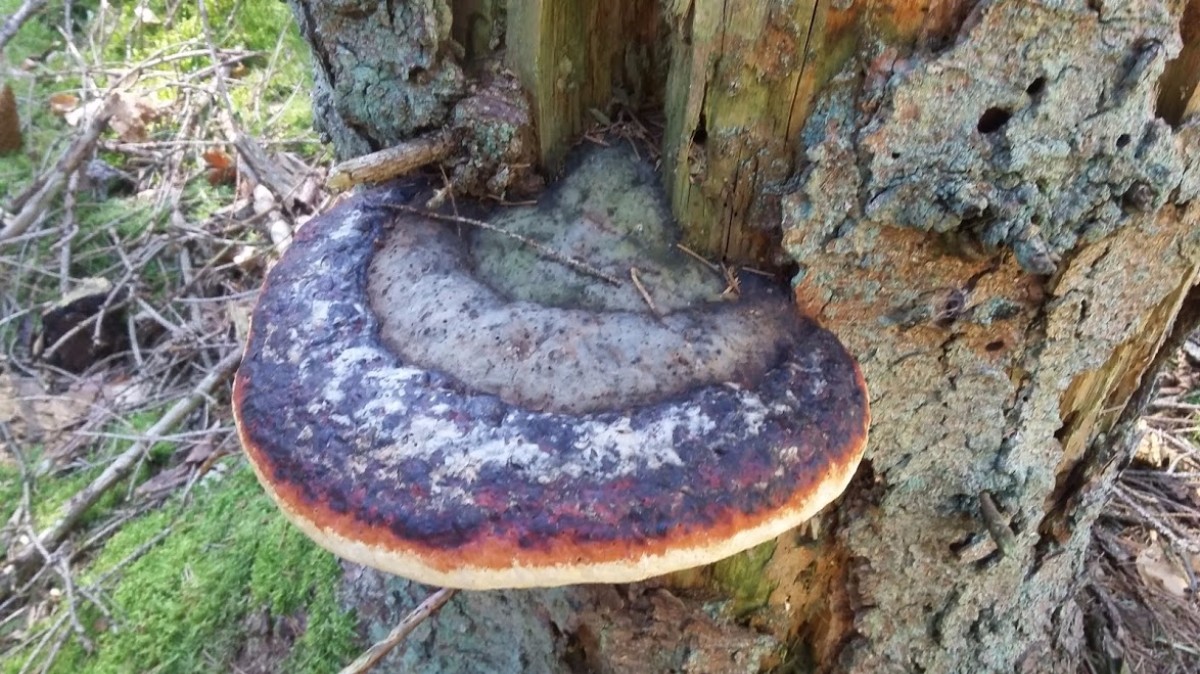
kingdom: Fungi
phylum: Basidiomycota
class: Agaricomycetes
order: Polyporales
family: Fomitopsidaceae
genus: Fomitopsis
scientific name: Fomitopsis pinicola
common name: randbæltet hovporesvamp
